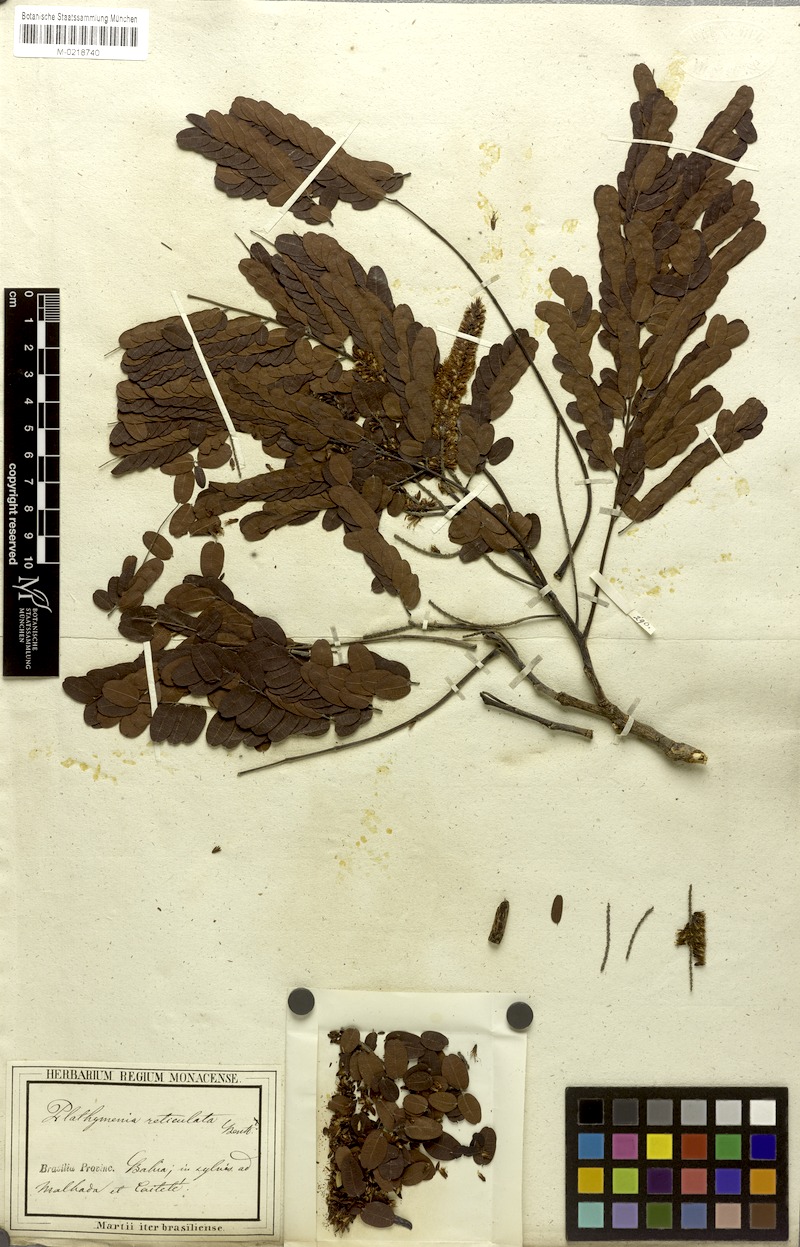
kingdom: Plantae
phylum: Tracheophyta
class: Magnoliopsida
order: Fabales
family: Fabaceae
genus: Plathymenia
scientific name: Plathymenia reticulata
